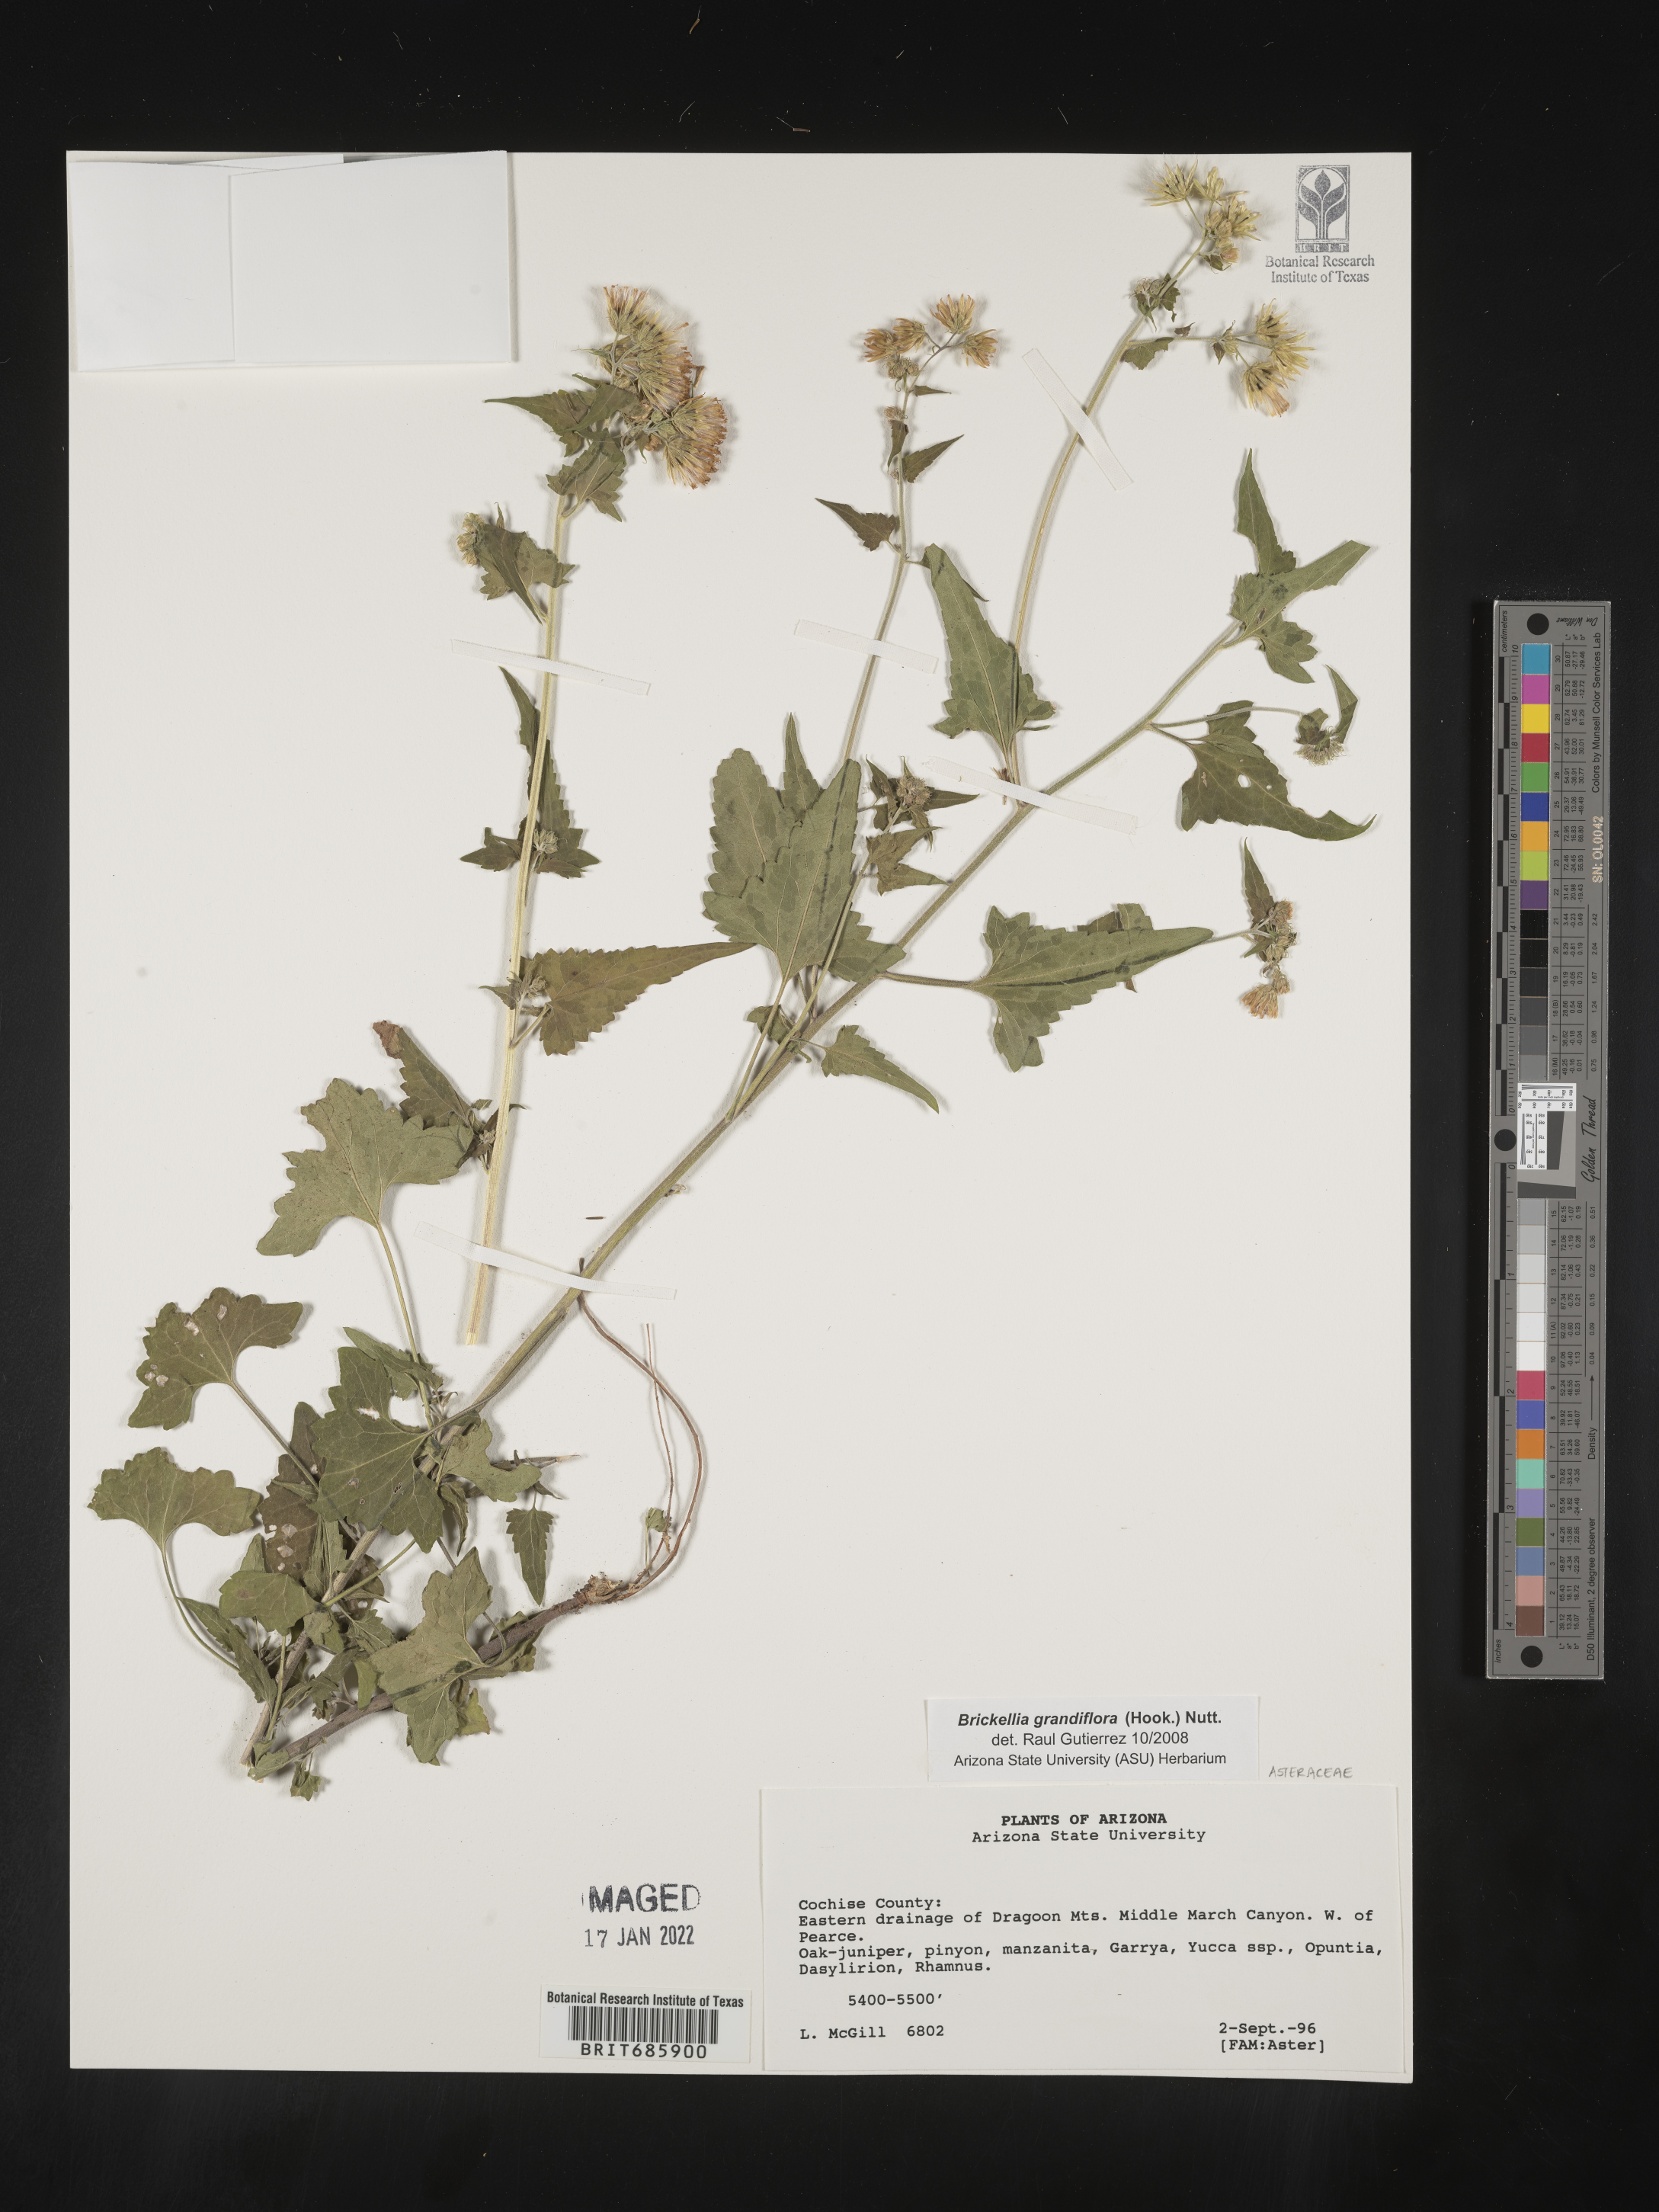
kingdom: Plantae
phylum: Tracheophyta
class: Magnoliopsida
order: Asterales
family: Asteraceae
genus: Brickellia
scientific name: Brickellia grandiflora
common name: Large-flowered brickellia
